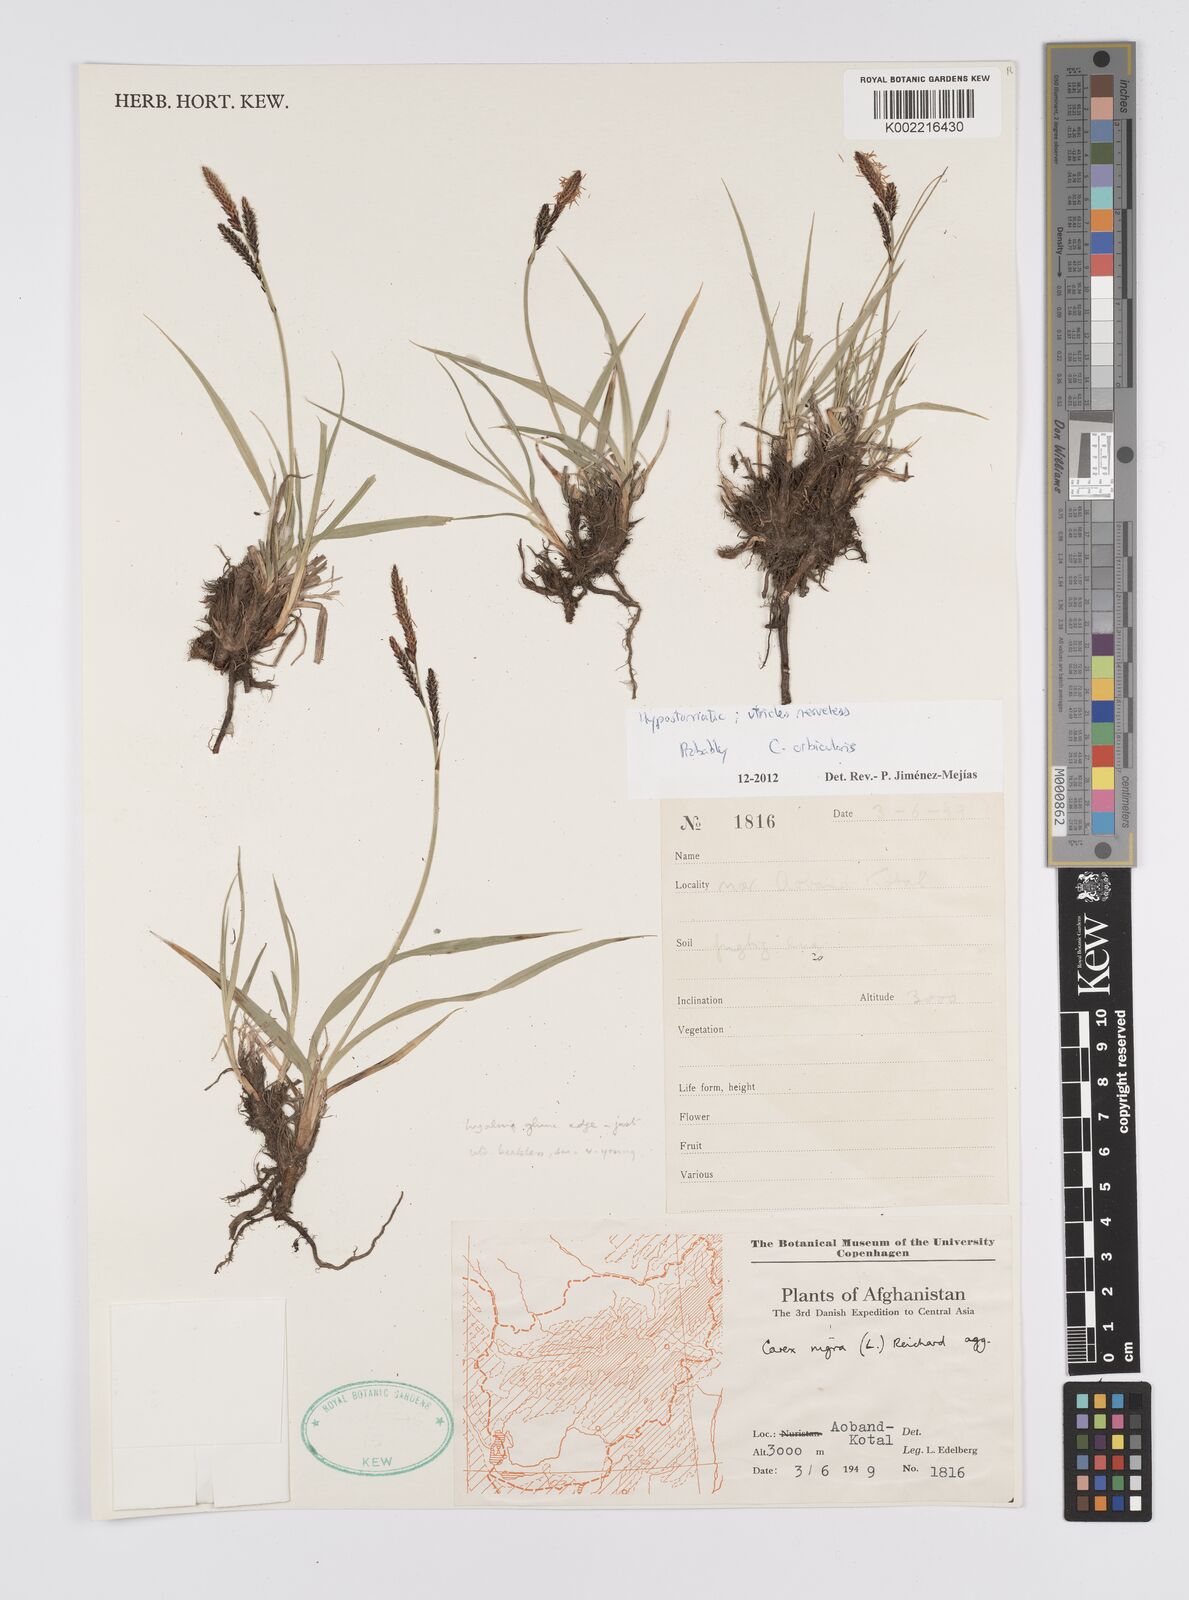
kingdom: Plantae
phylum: Tracheophyta
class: Liliopsida
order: Poales
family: Cyperaceae
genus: Carex
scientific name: Carex orbicularis
